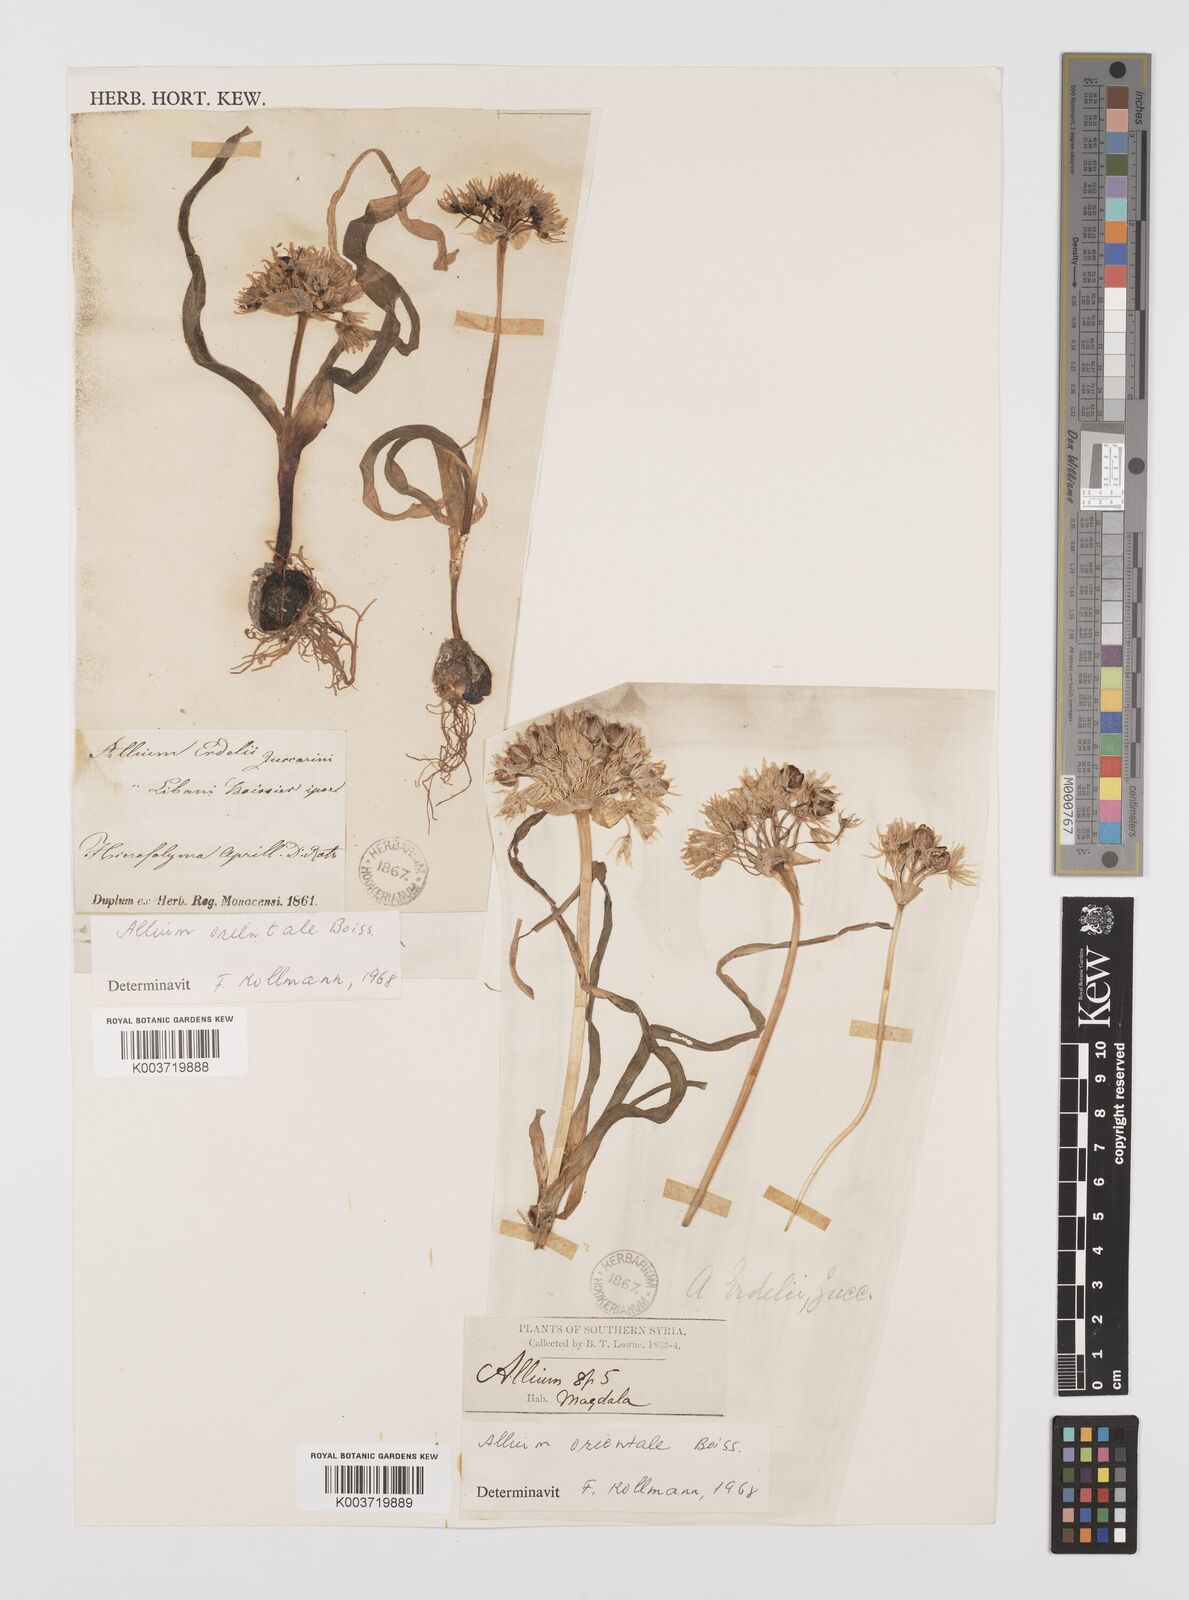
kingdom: Plantae
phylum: Tracheophyta
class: Liliopsida
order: Asparagales
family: Amaryllidaceae
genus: Allium
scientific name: Allium orientale
